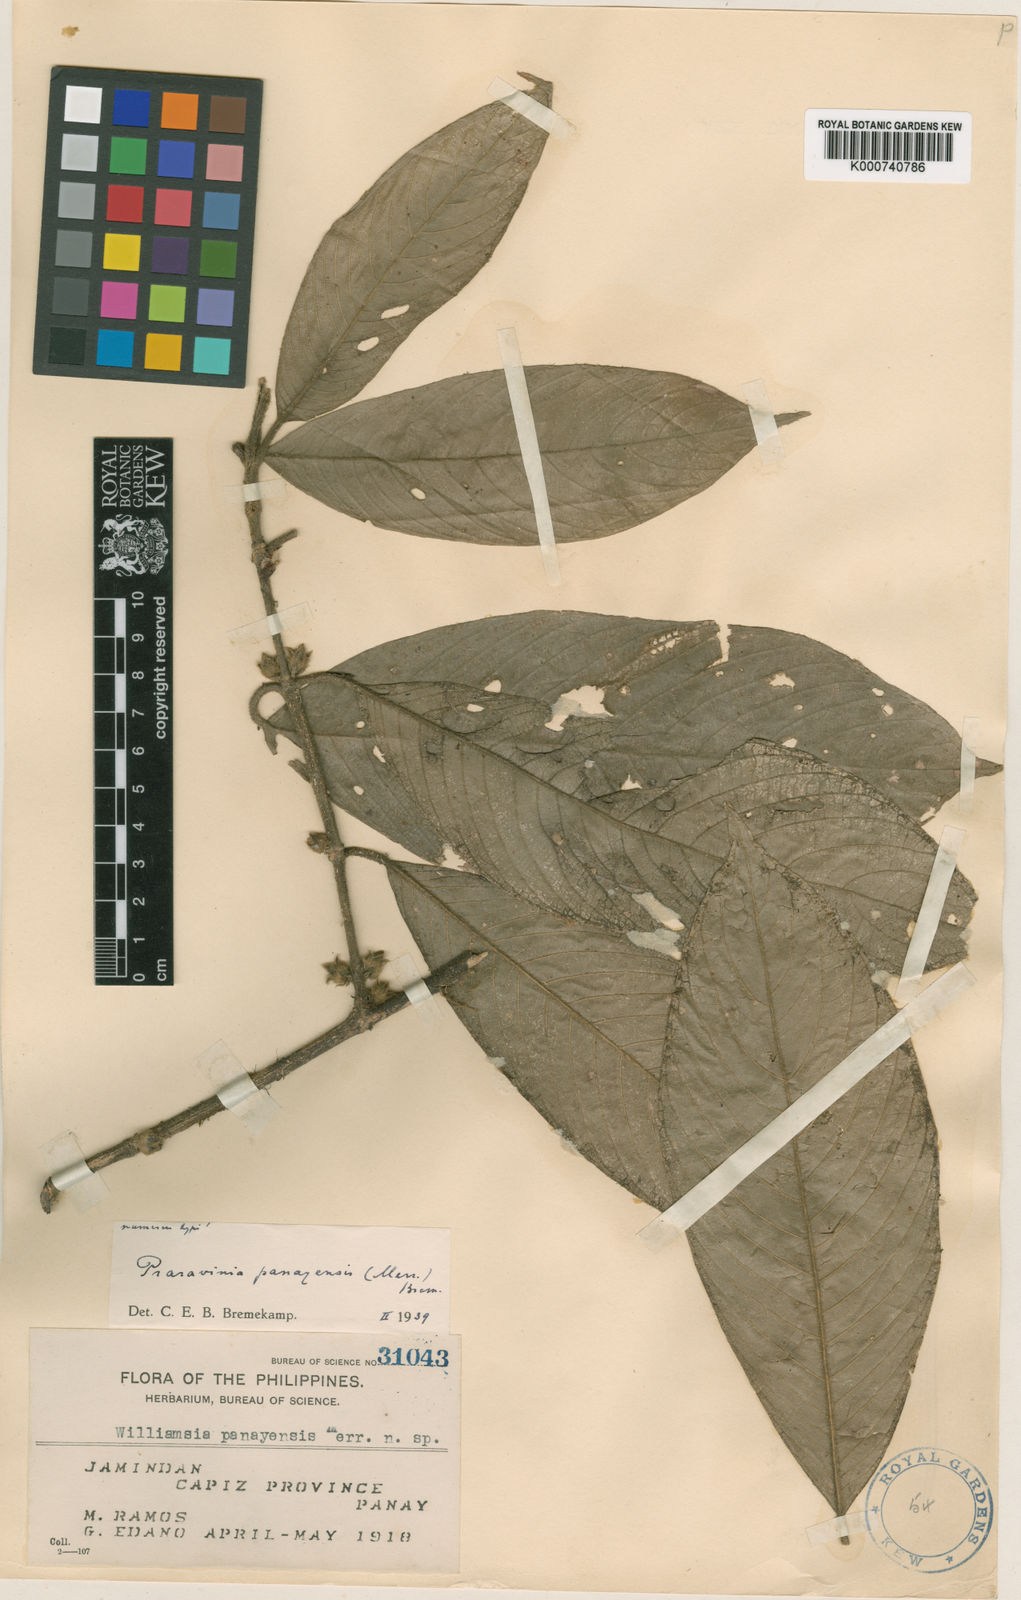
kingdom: Plantae
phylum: Tracheophyta
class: Magnoliopsida
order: Gentianales
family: Rubiaceae
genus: Praravinia
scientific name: Praravinia panayensis
